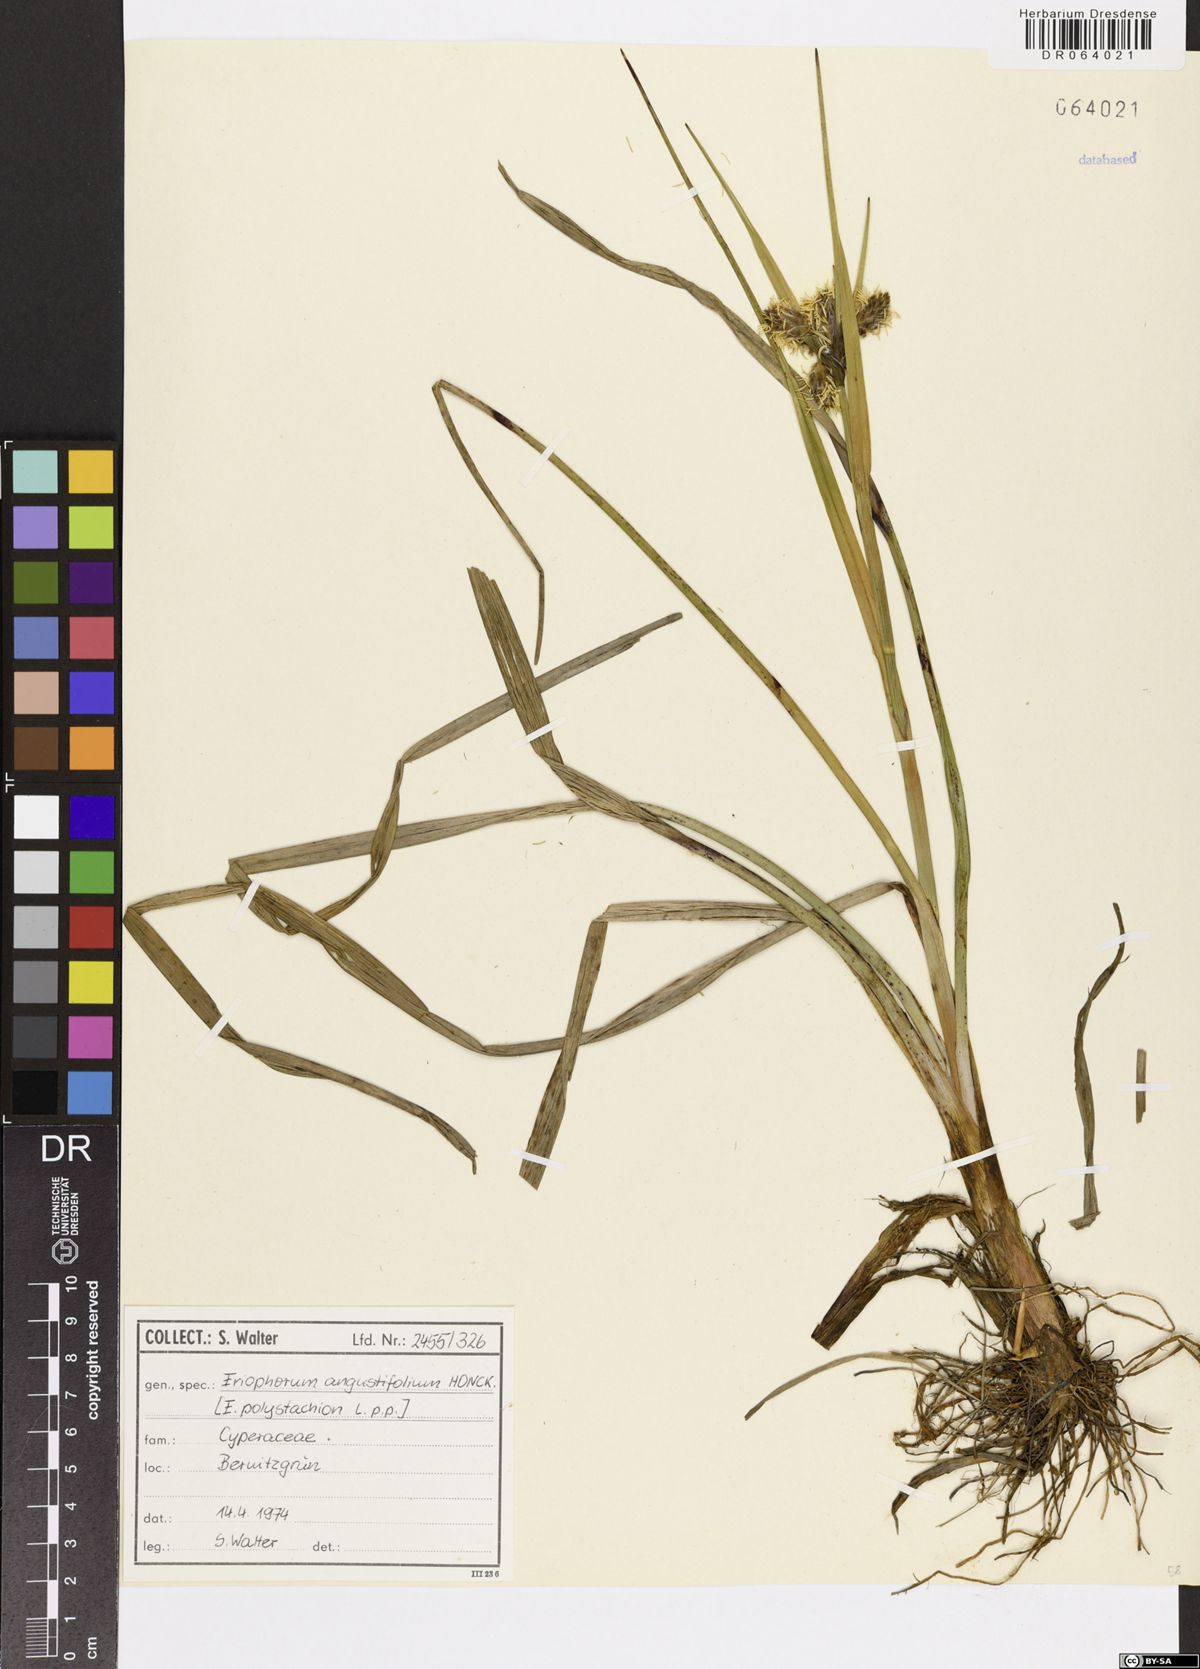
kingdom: Plantae
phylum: Tracheophyta
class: Liliopsida
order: Poales
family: Cyperaceae
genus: Eriophorum
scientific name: Eriophorum angustifolium
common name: Common cottongrass
